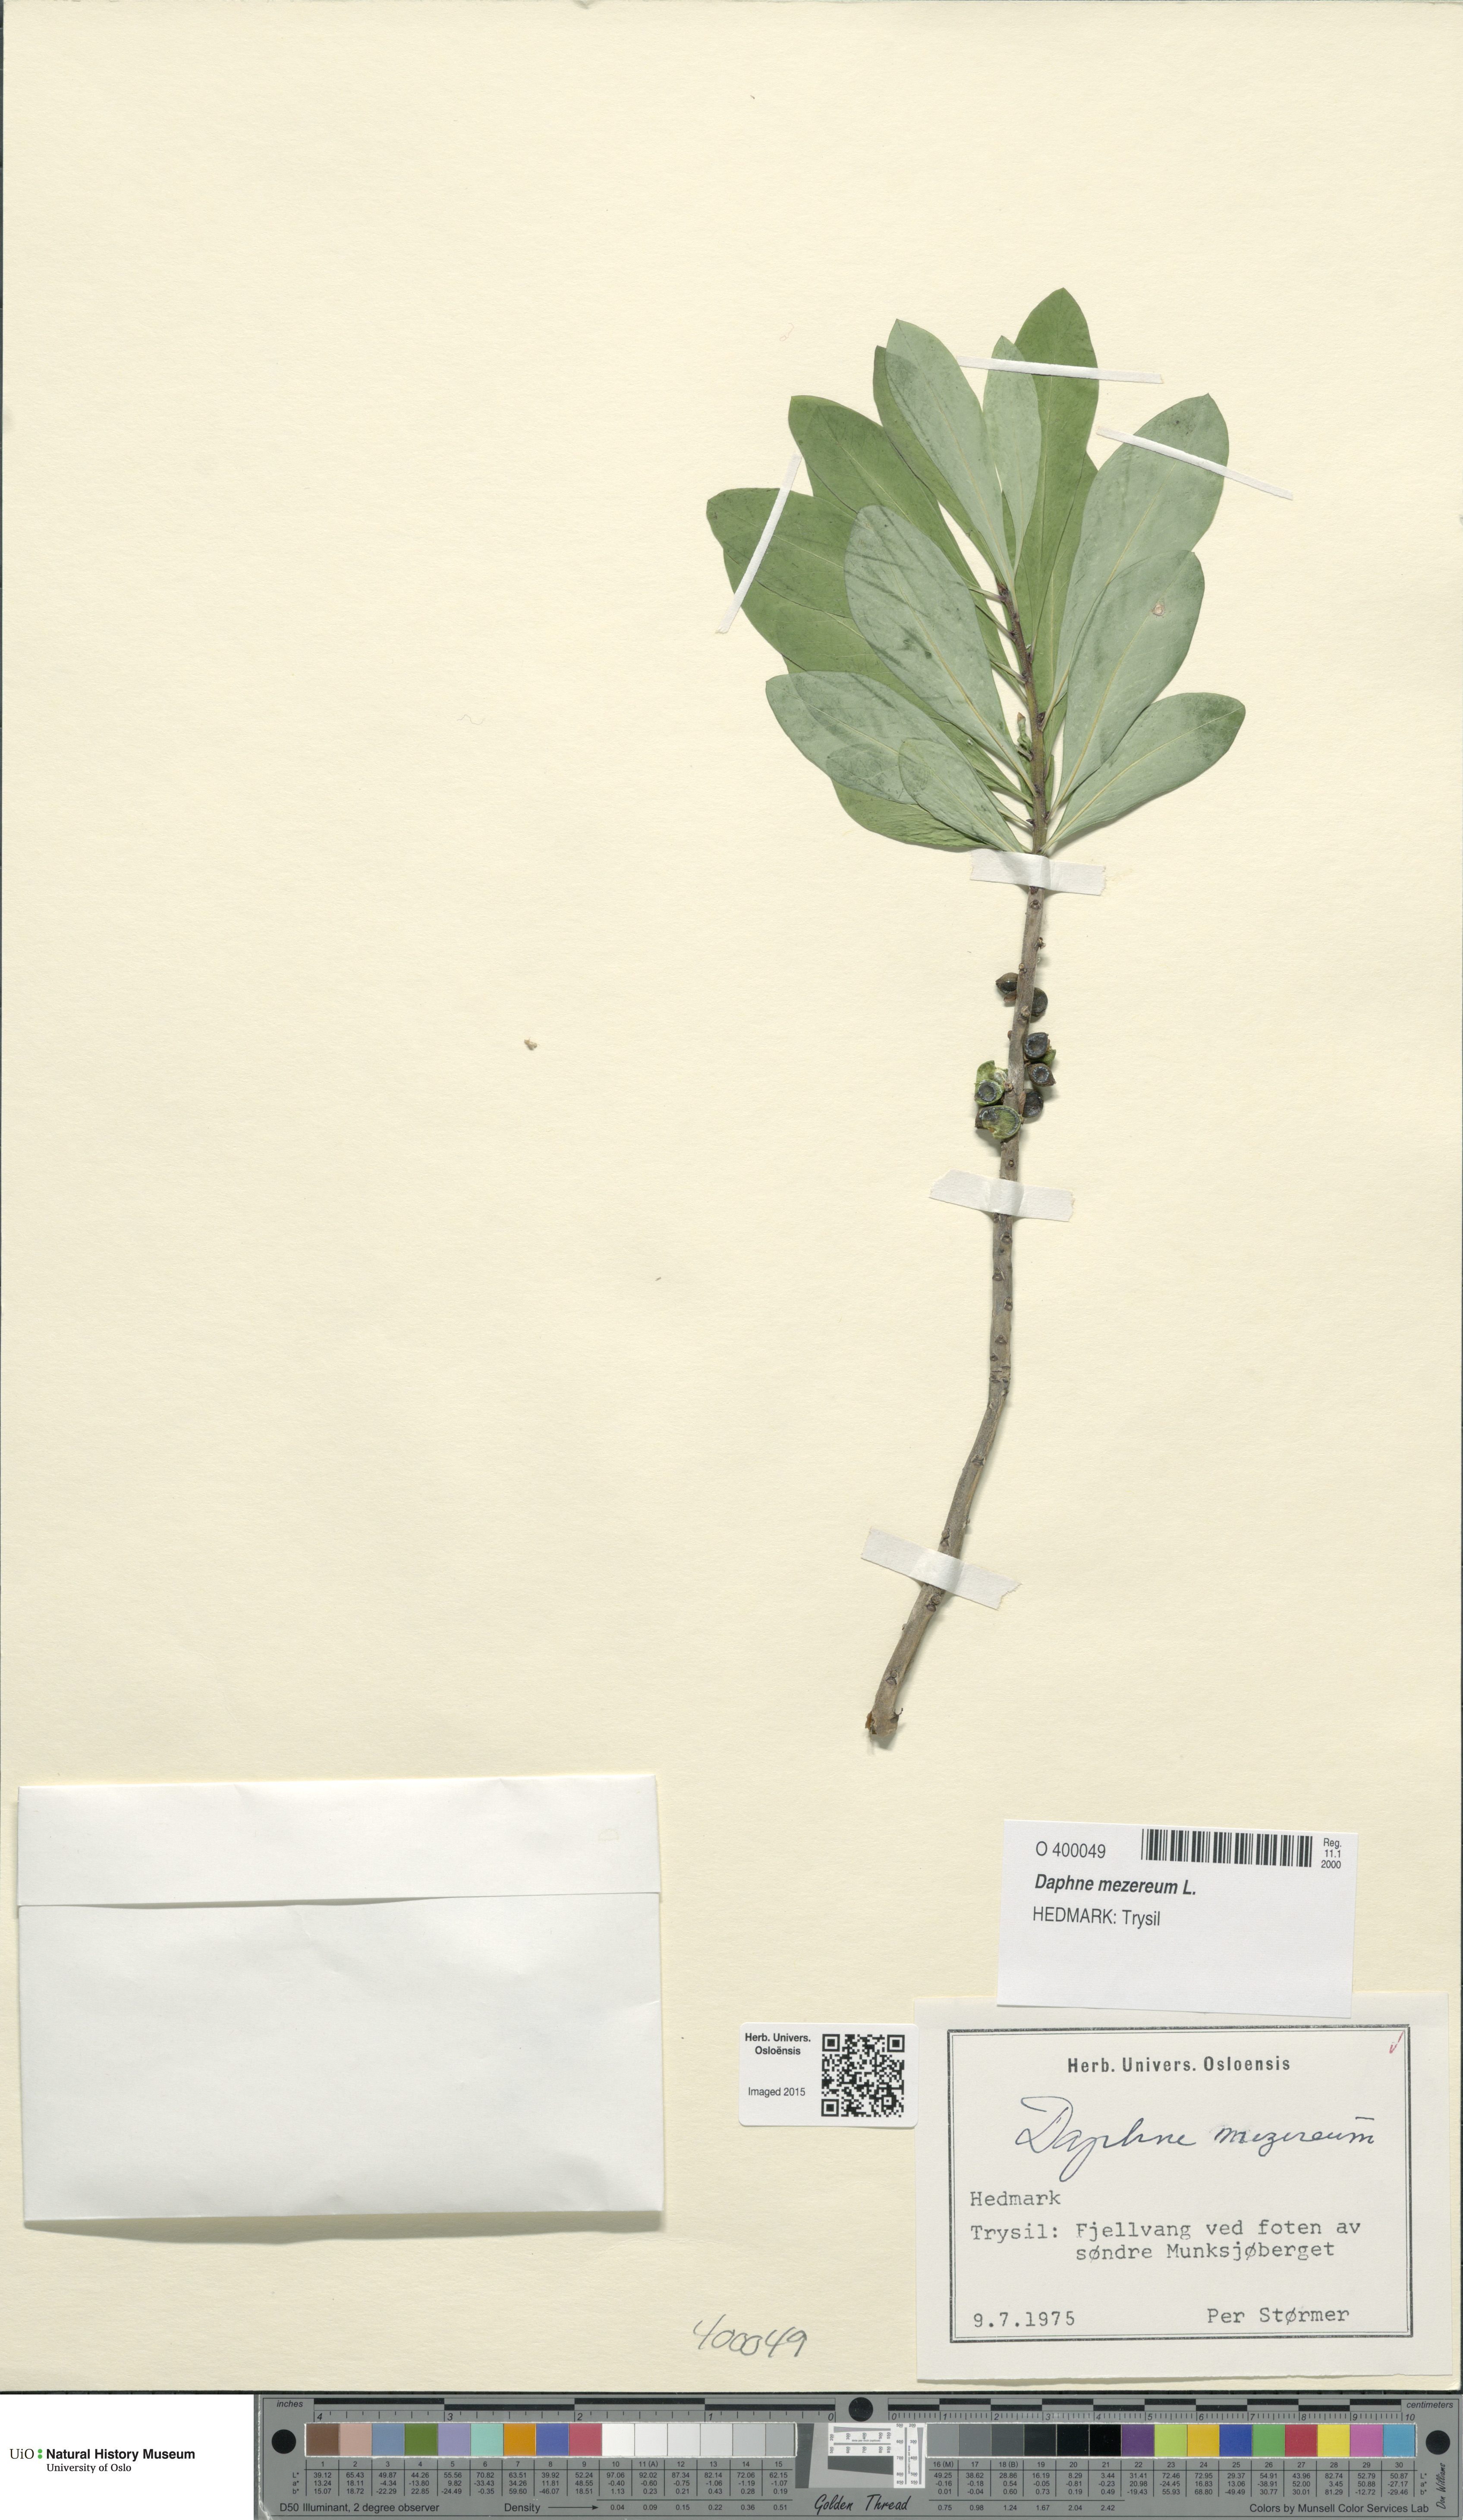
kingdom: Plantae
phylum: Tracheophyta
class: Magnoliopsida
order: Malvales
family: Thymelaeaceae
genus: Daphne
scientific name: Daphne mezereum
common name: Mezereon
